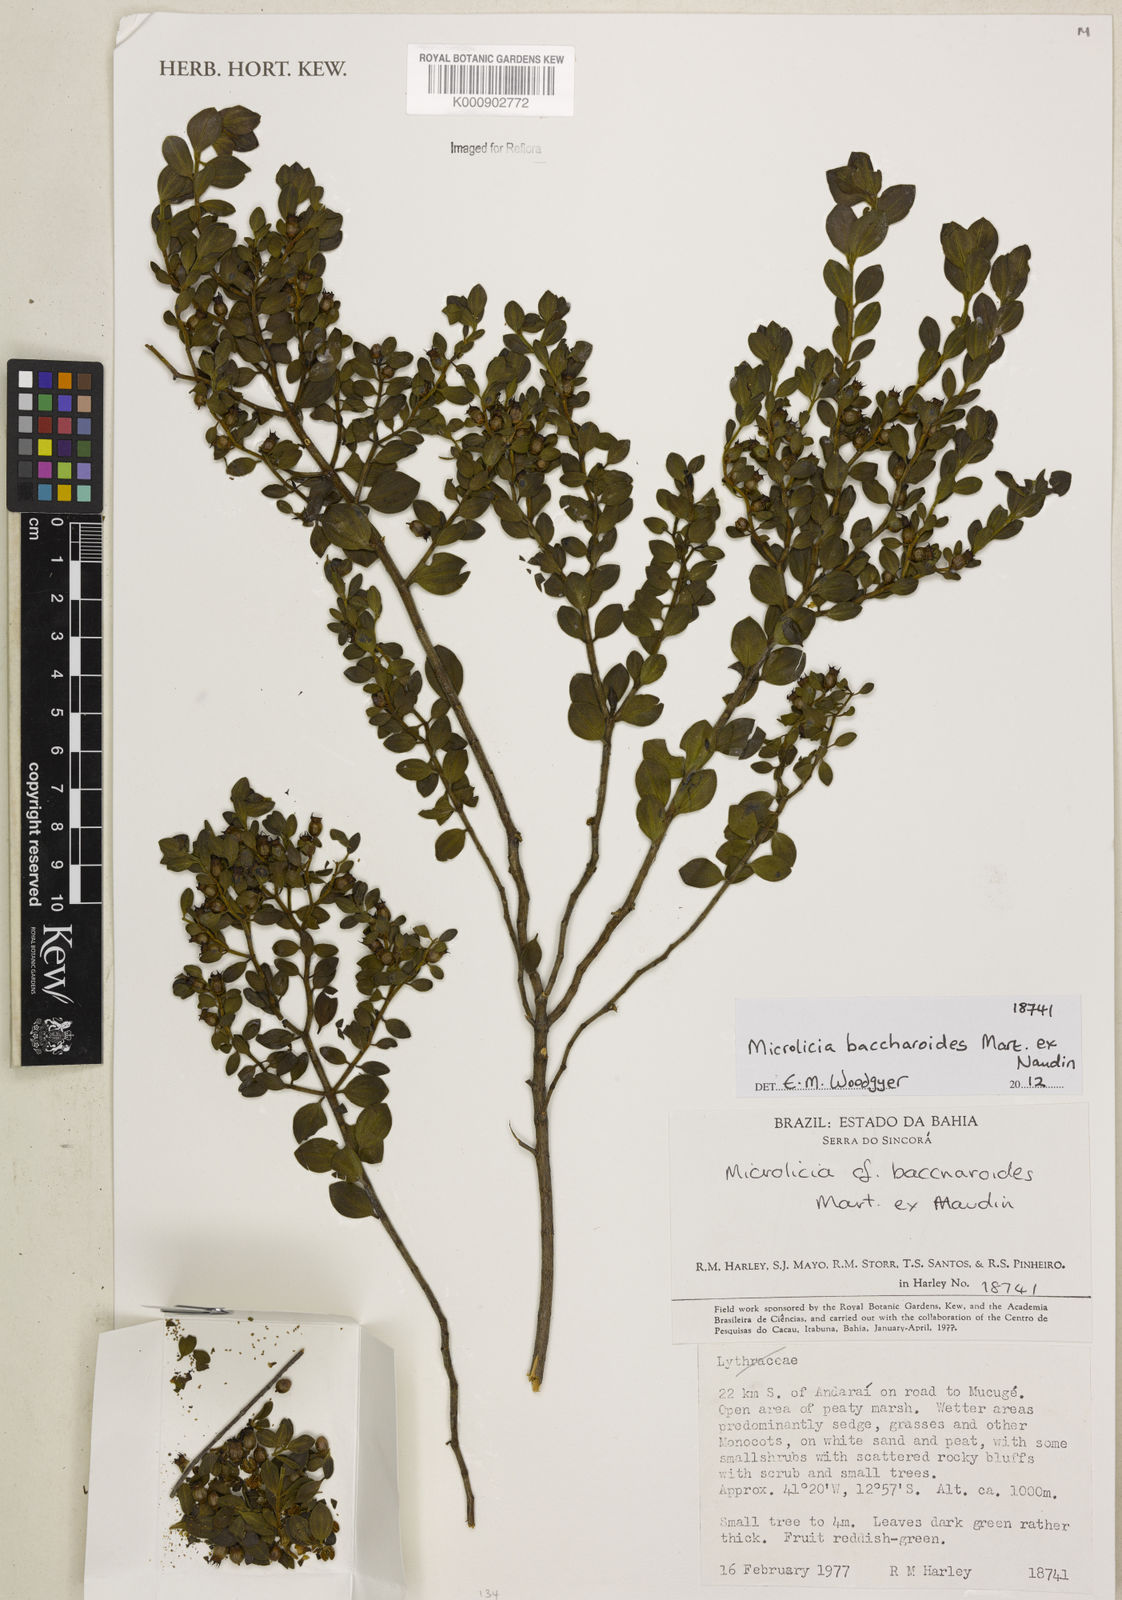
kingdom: Plantae
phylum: Tracheophyta
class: Magnoliopsida
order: Myrtales
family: Melastomataceae
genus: Microlicia
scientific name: Microlicia baccharoides
